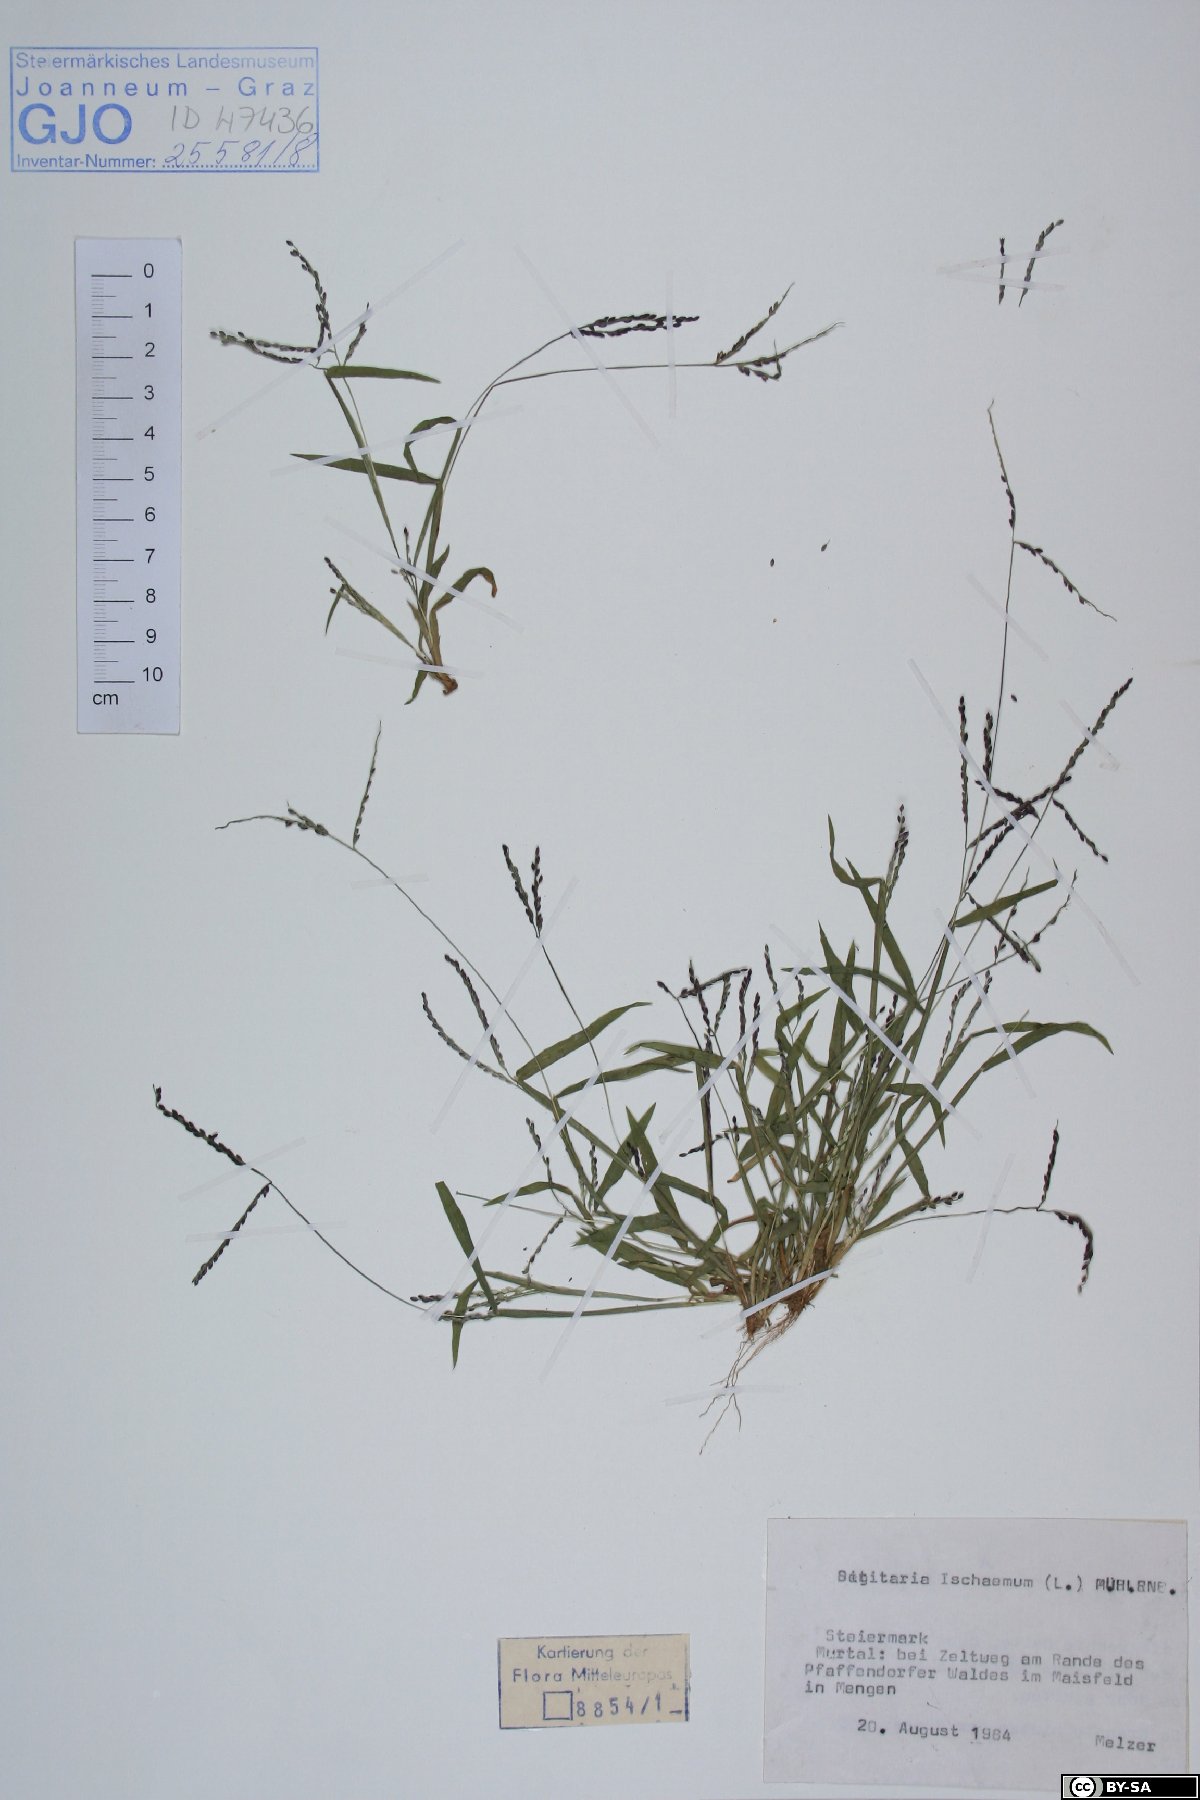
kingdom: Plantae
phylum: Tracheophyta
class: Liliopsida
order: Poales
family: Poaceae
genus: Digitaria
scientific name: Digitaria ischaemum
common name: Smooth crabgrass
